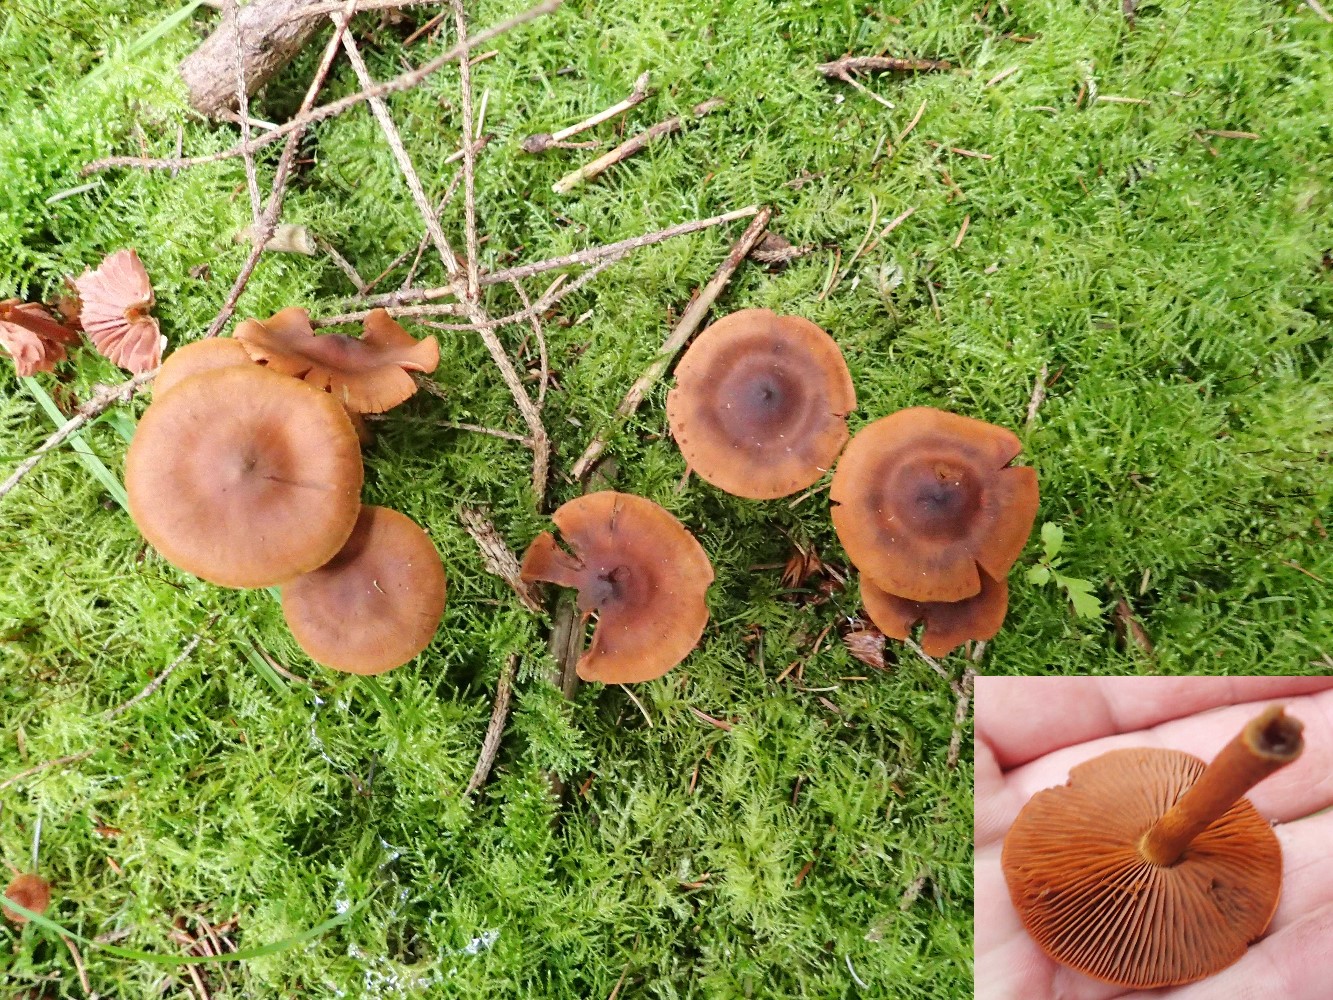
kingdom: Fungi
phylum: Basidiomycota
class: Agaricomycetes
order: Agaricales
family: Cortinariaceae
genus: Cortinarius
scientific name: Cortinarius
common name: cinnoberbladet slørhat
